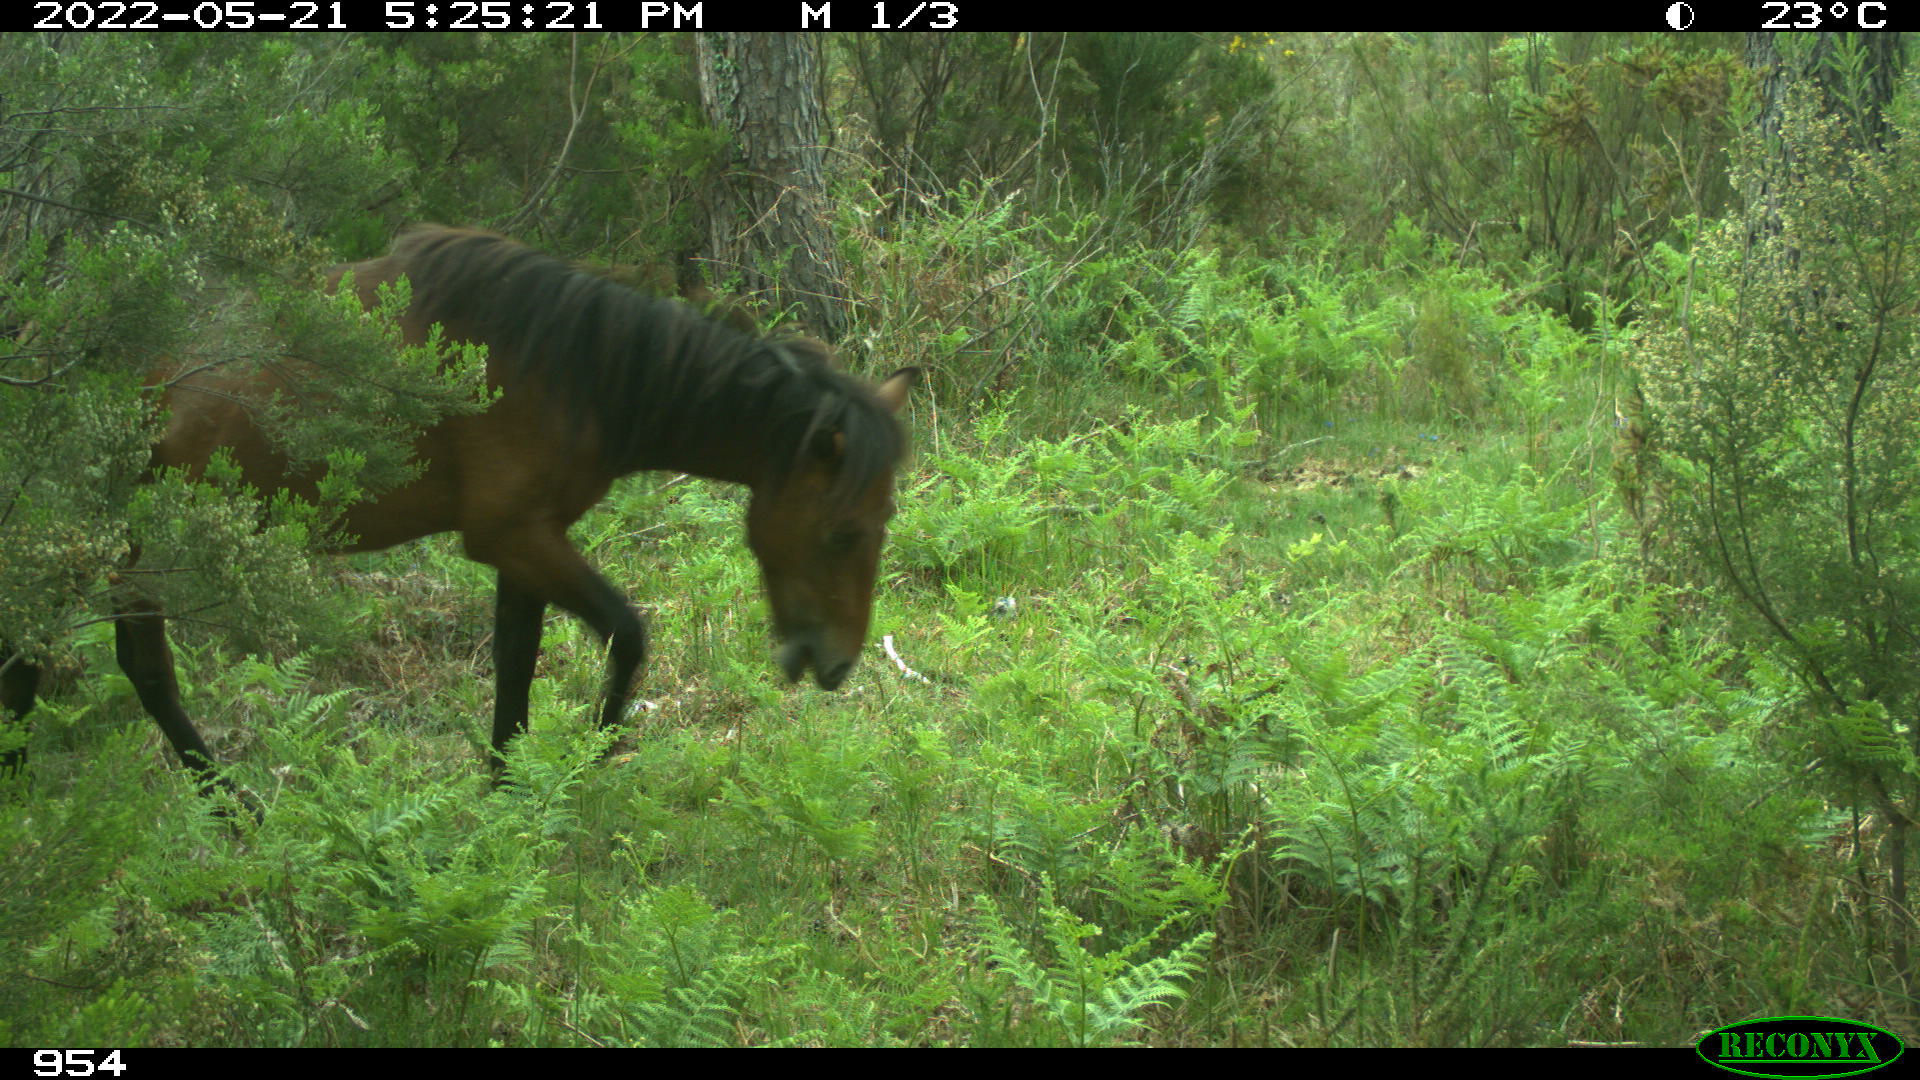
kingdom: Animalia
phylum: Chordata
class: Mammalia
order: Perissodactyla
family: Equidae
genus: Equus
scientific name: Equus caballus
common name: Horse
